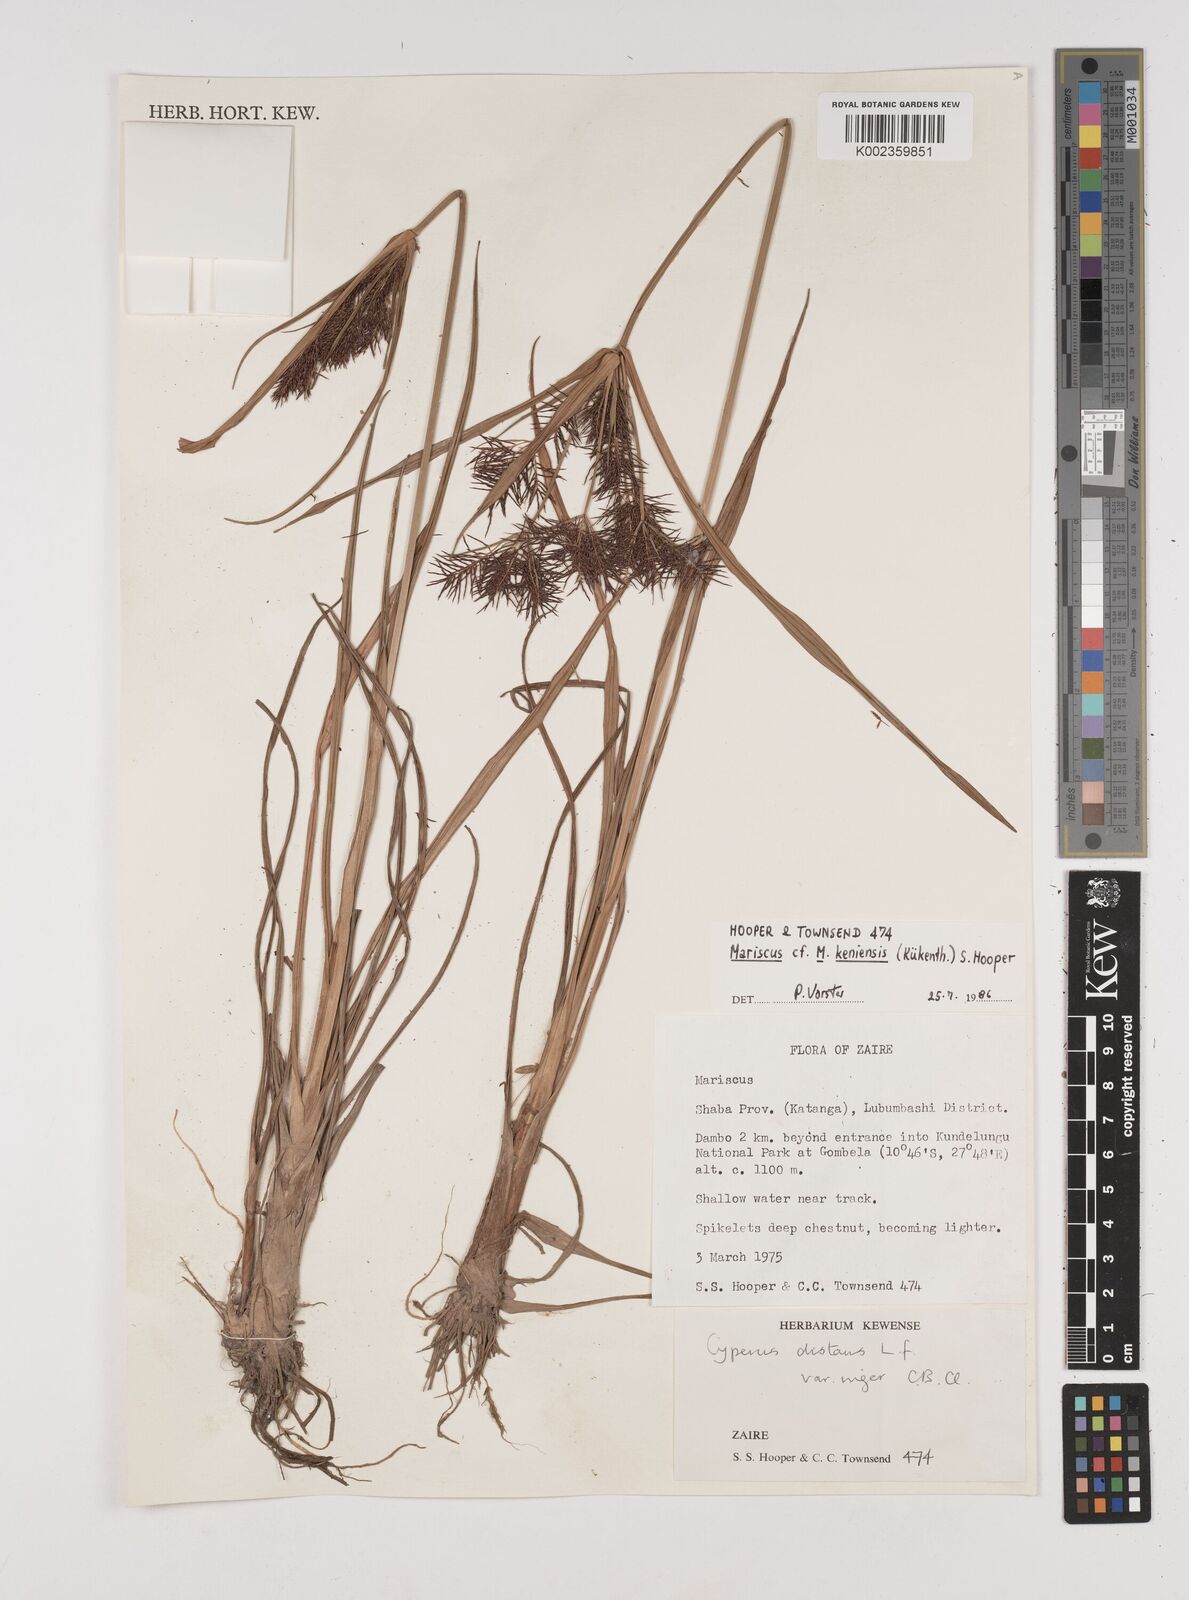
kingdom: Plantae
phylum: Tracheophyta
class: Liliopsida
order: Poales
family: Cyperaceae
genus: Cyperus
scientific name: Cyperus distans
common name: Slender cyperus
